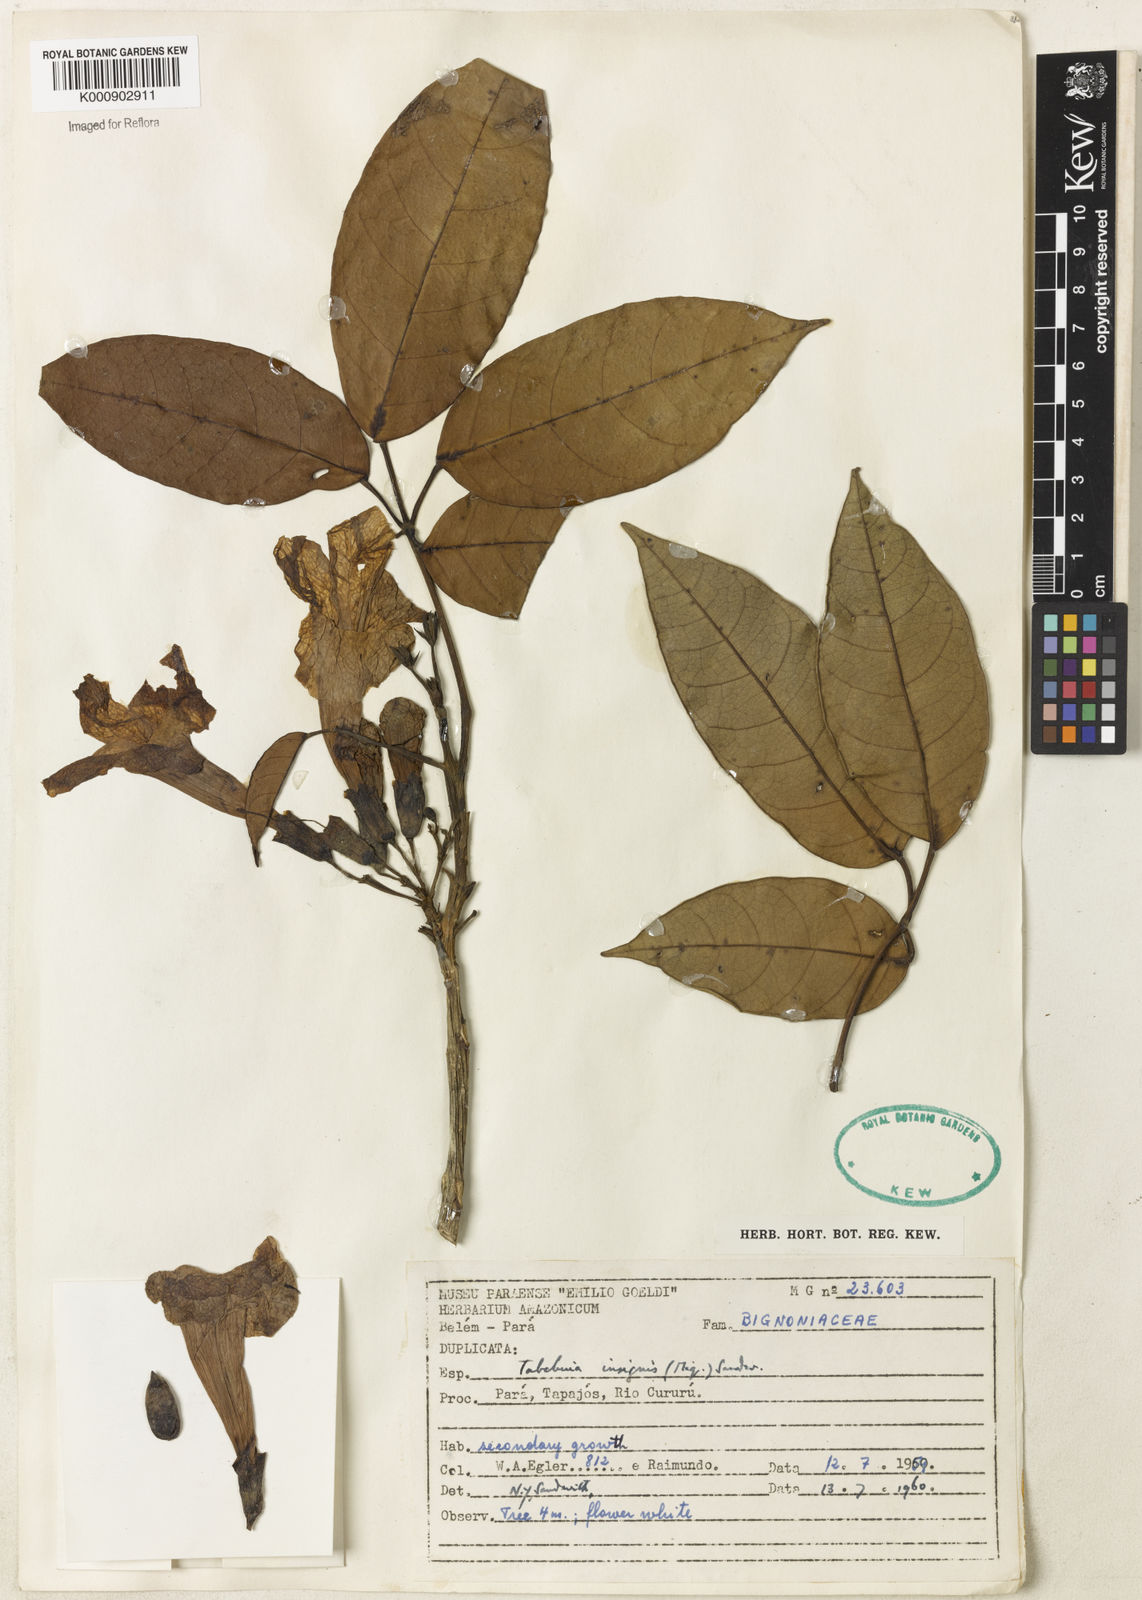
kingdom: Plantae
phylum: Tracheophyta
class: Magnoliopsida
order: Lamiales
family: Bignoniaceae
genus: Tabebuia
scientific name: Tabebuia insignis
